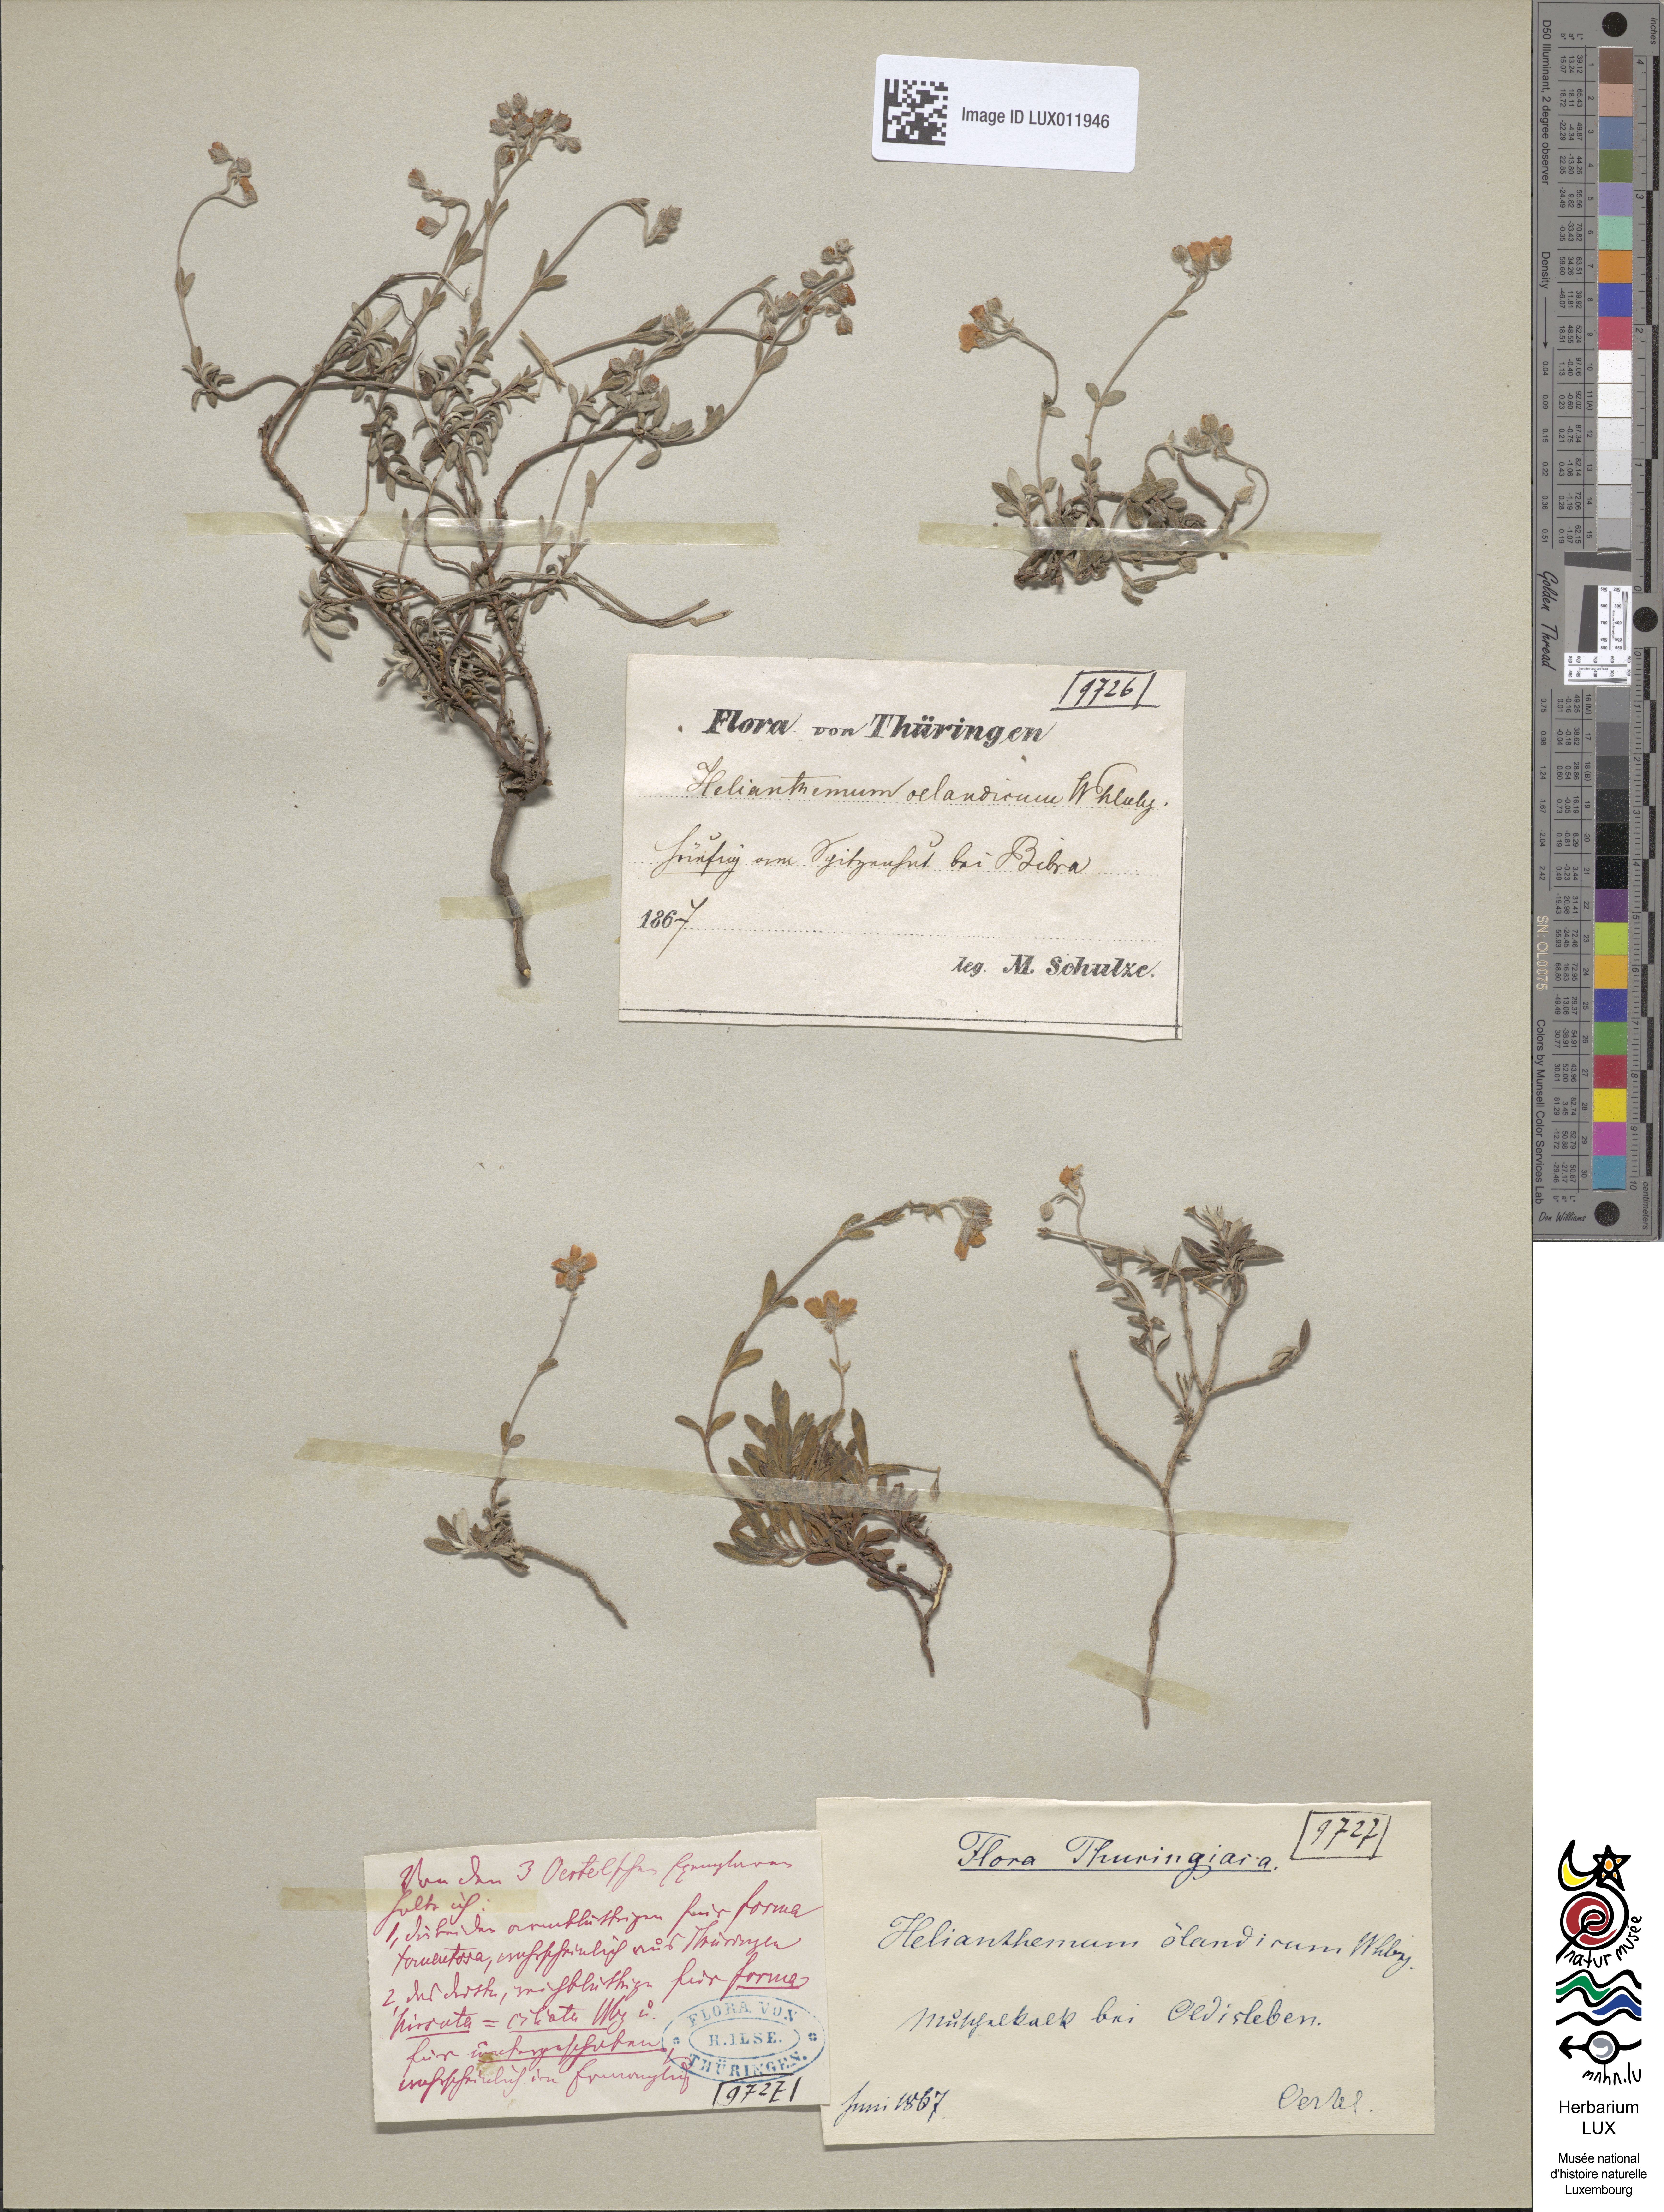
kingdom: Plantae
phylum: Tracheophyta
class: Magnoliopsida
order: Malvales
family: Cistaceae
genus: Helianthemum
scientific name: Helianthemum oelandicum
